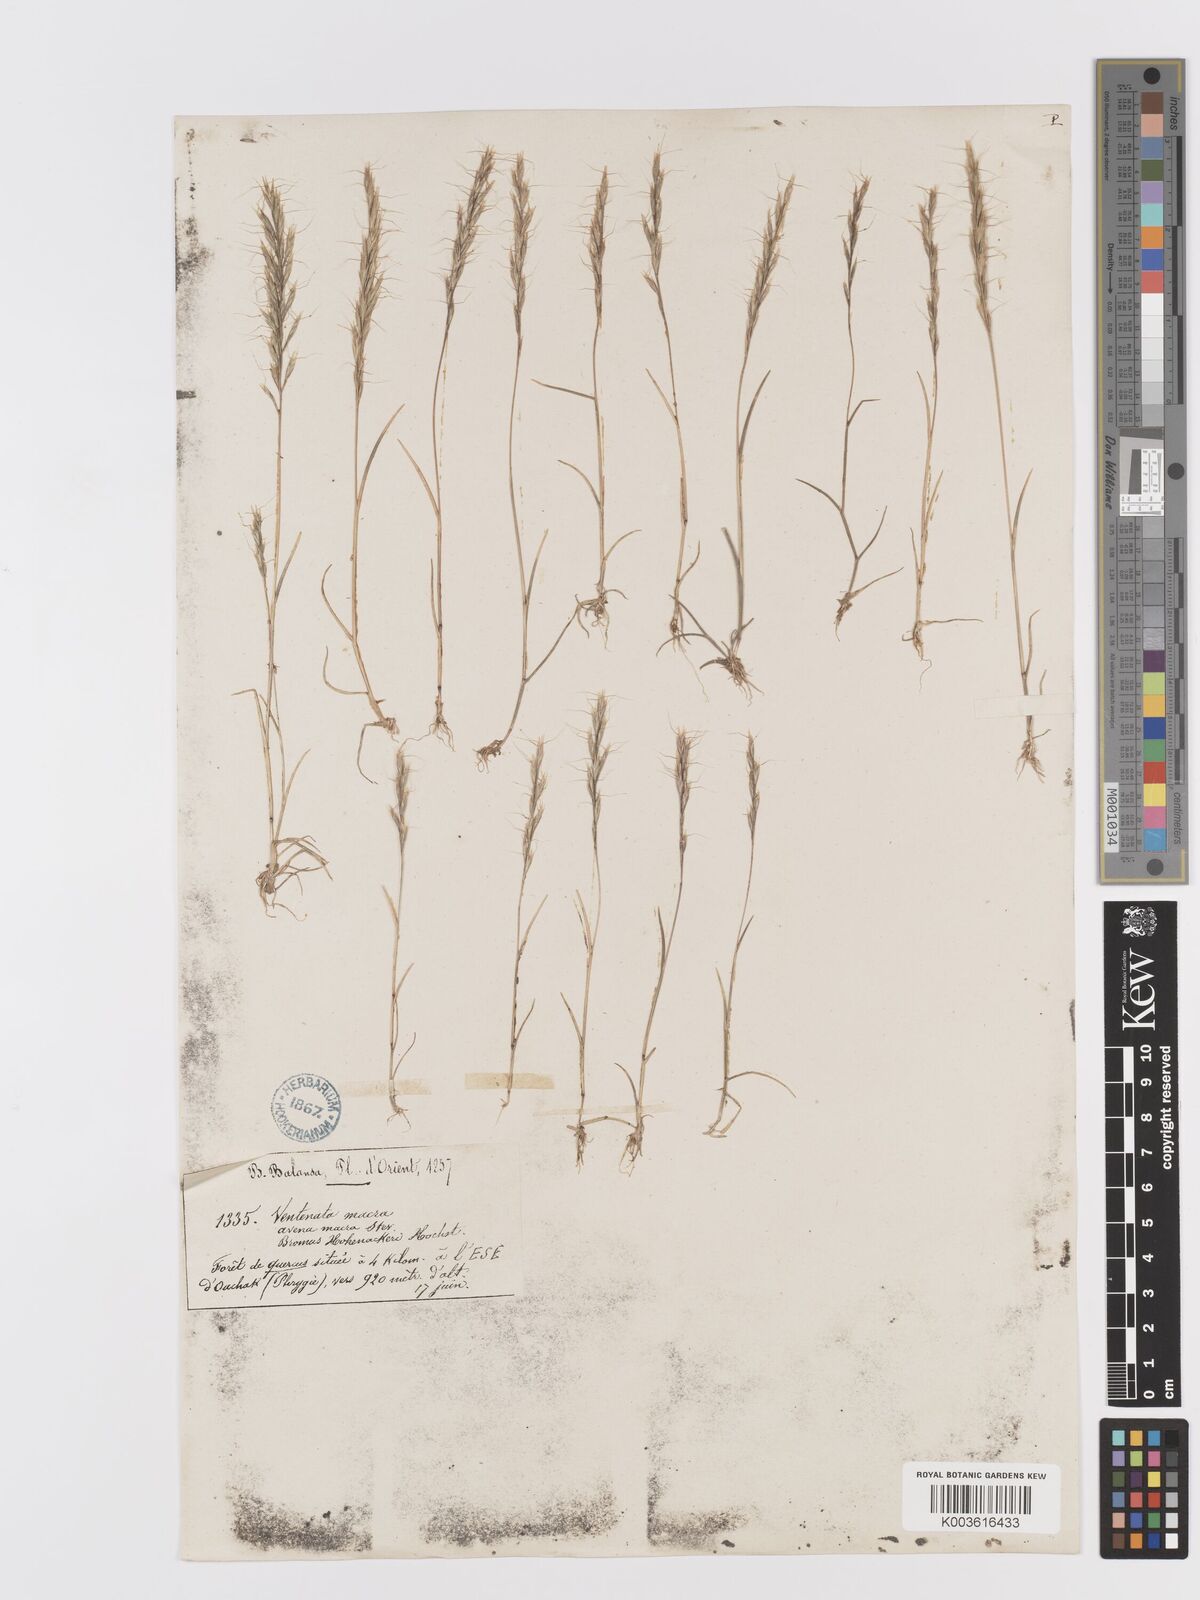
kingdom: Plantae
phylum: Tracheophyta
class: Liliopsida
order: Poales
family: Poaceae
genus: Ventenata
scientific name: Ventenata macra
